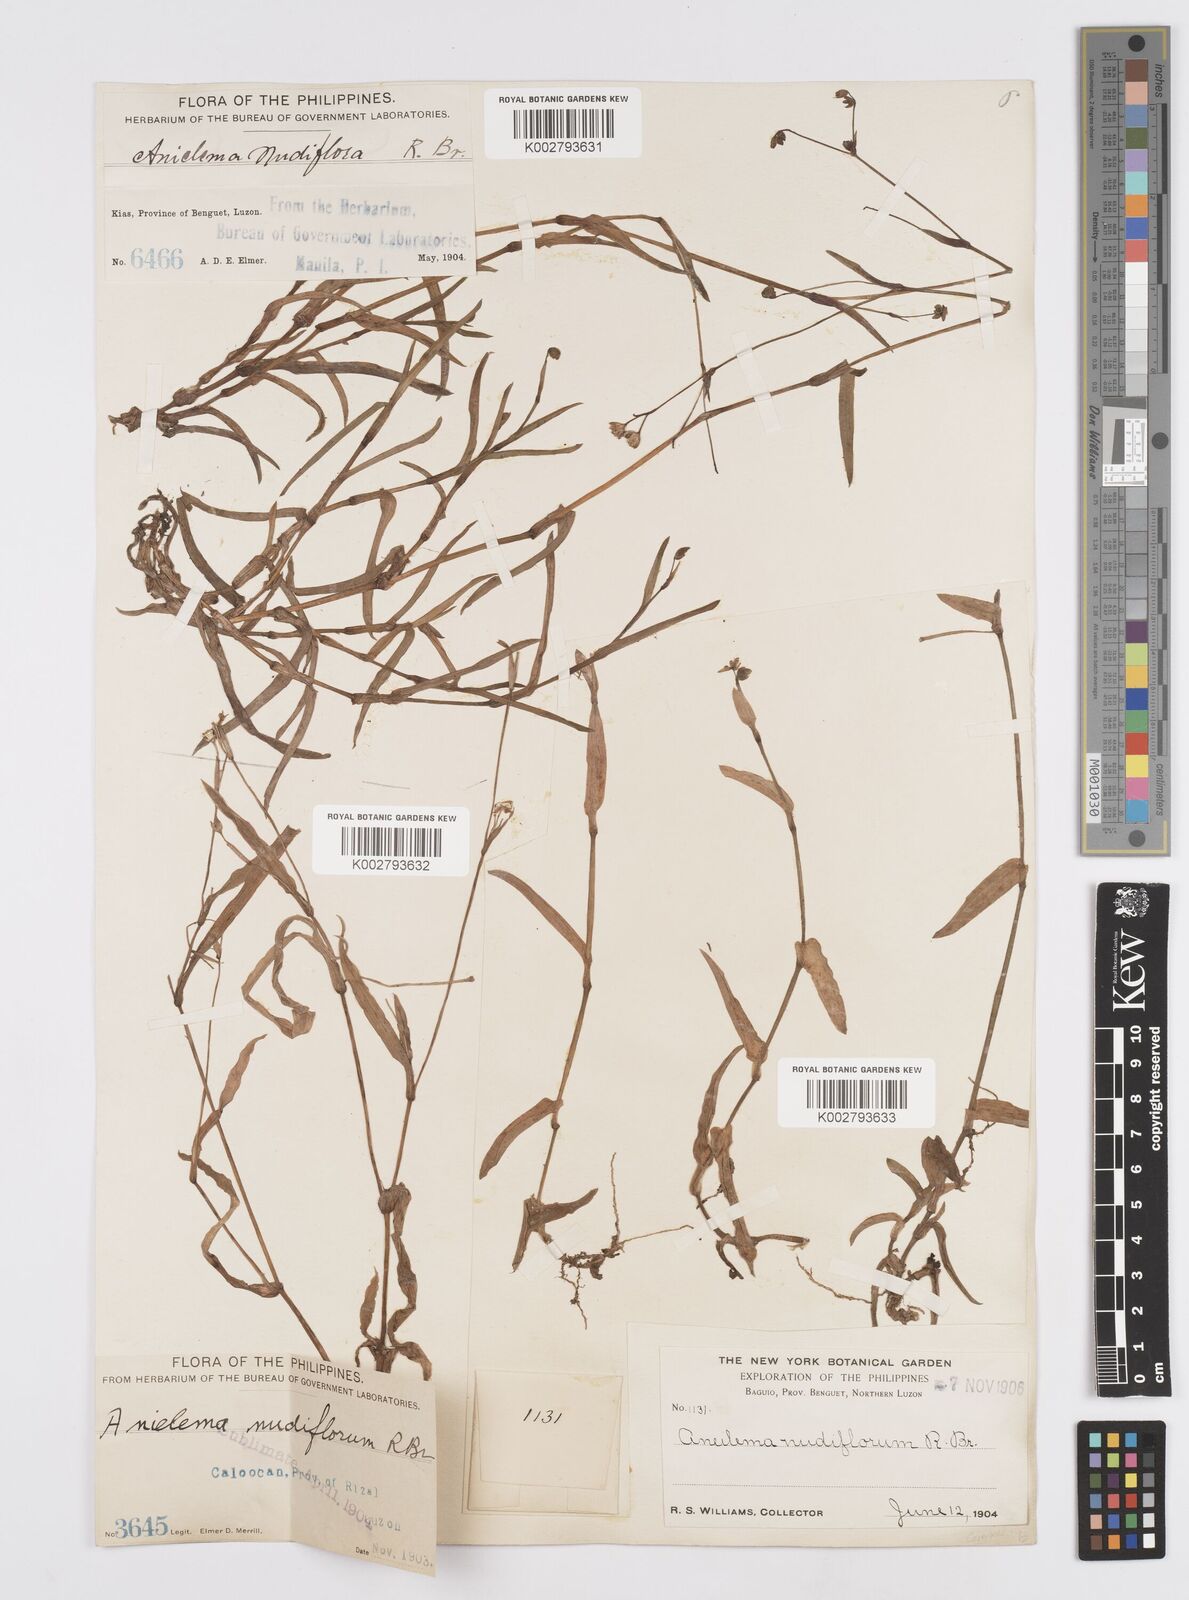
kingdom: Plantae
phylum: Tracheophyta
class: Liliopsida
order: Commelinales
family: Commelinaceae
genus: Murdannia
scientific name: Murdannia nudiflora
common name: Nakedstem dewflower
